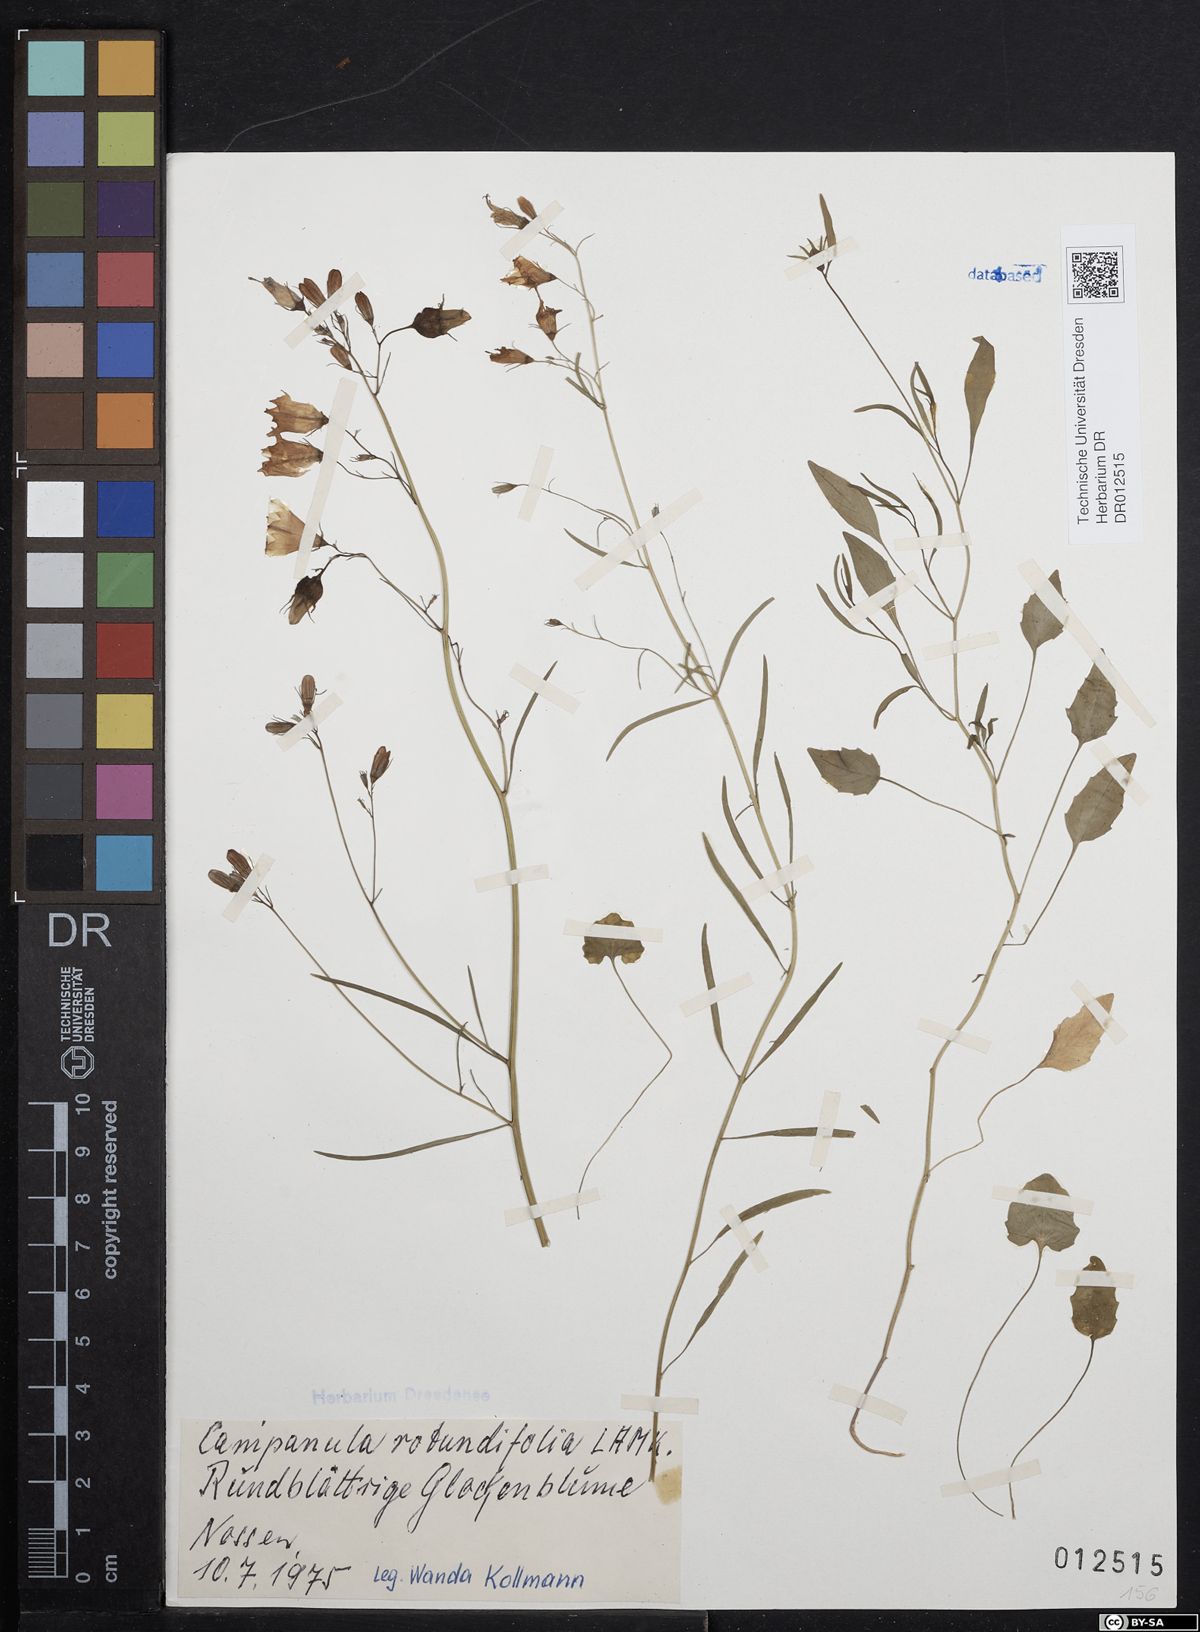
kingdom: Plantae
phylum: Tracheophyta
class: Magnoliopsida
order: Asterales
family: Campanulaceae
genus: Campanula
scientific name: Campanula rotundifolia
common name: Harebell
